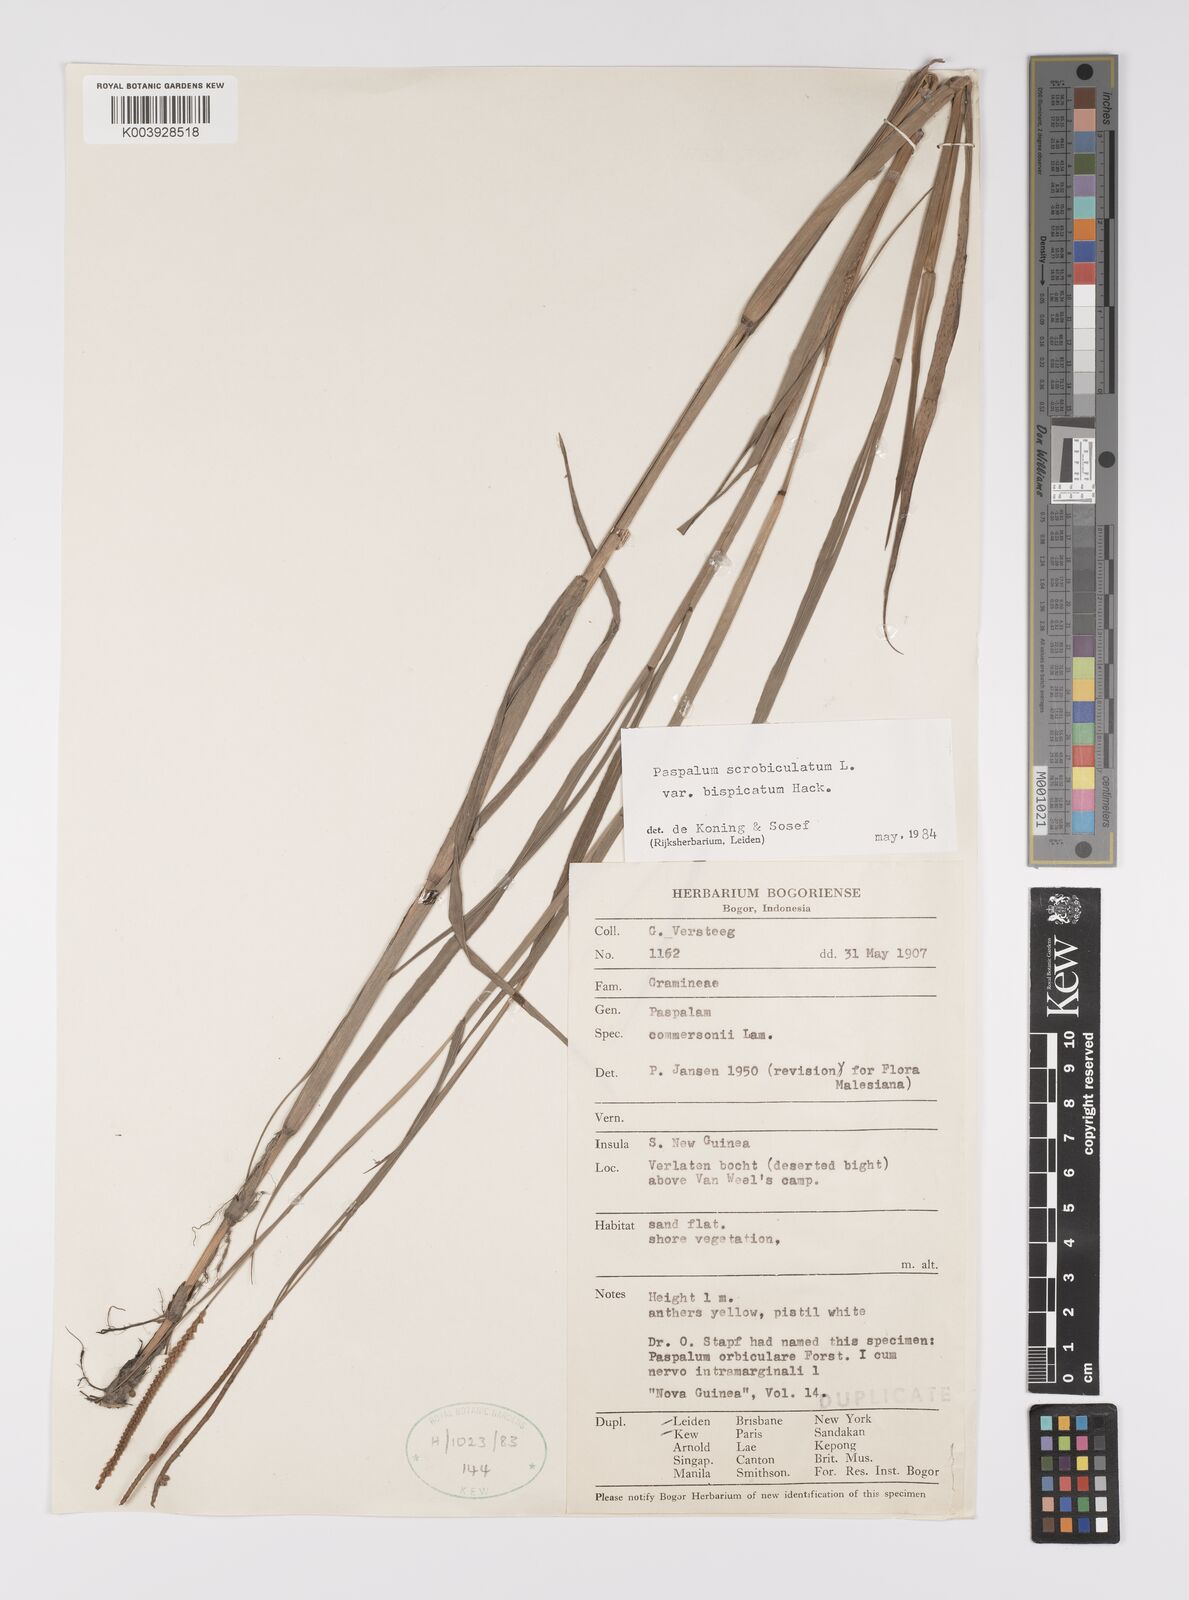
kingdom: Plantae
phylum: Tracheophyta
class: Liliopsida
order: Poales
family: Poaceae
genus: Paspalum
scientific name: Paspalum scrobiculatum
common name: Kodo millet
